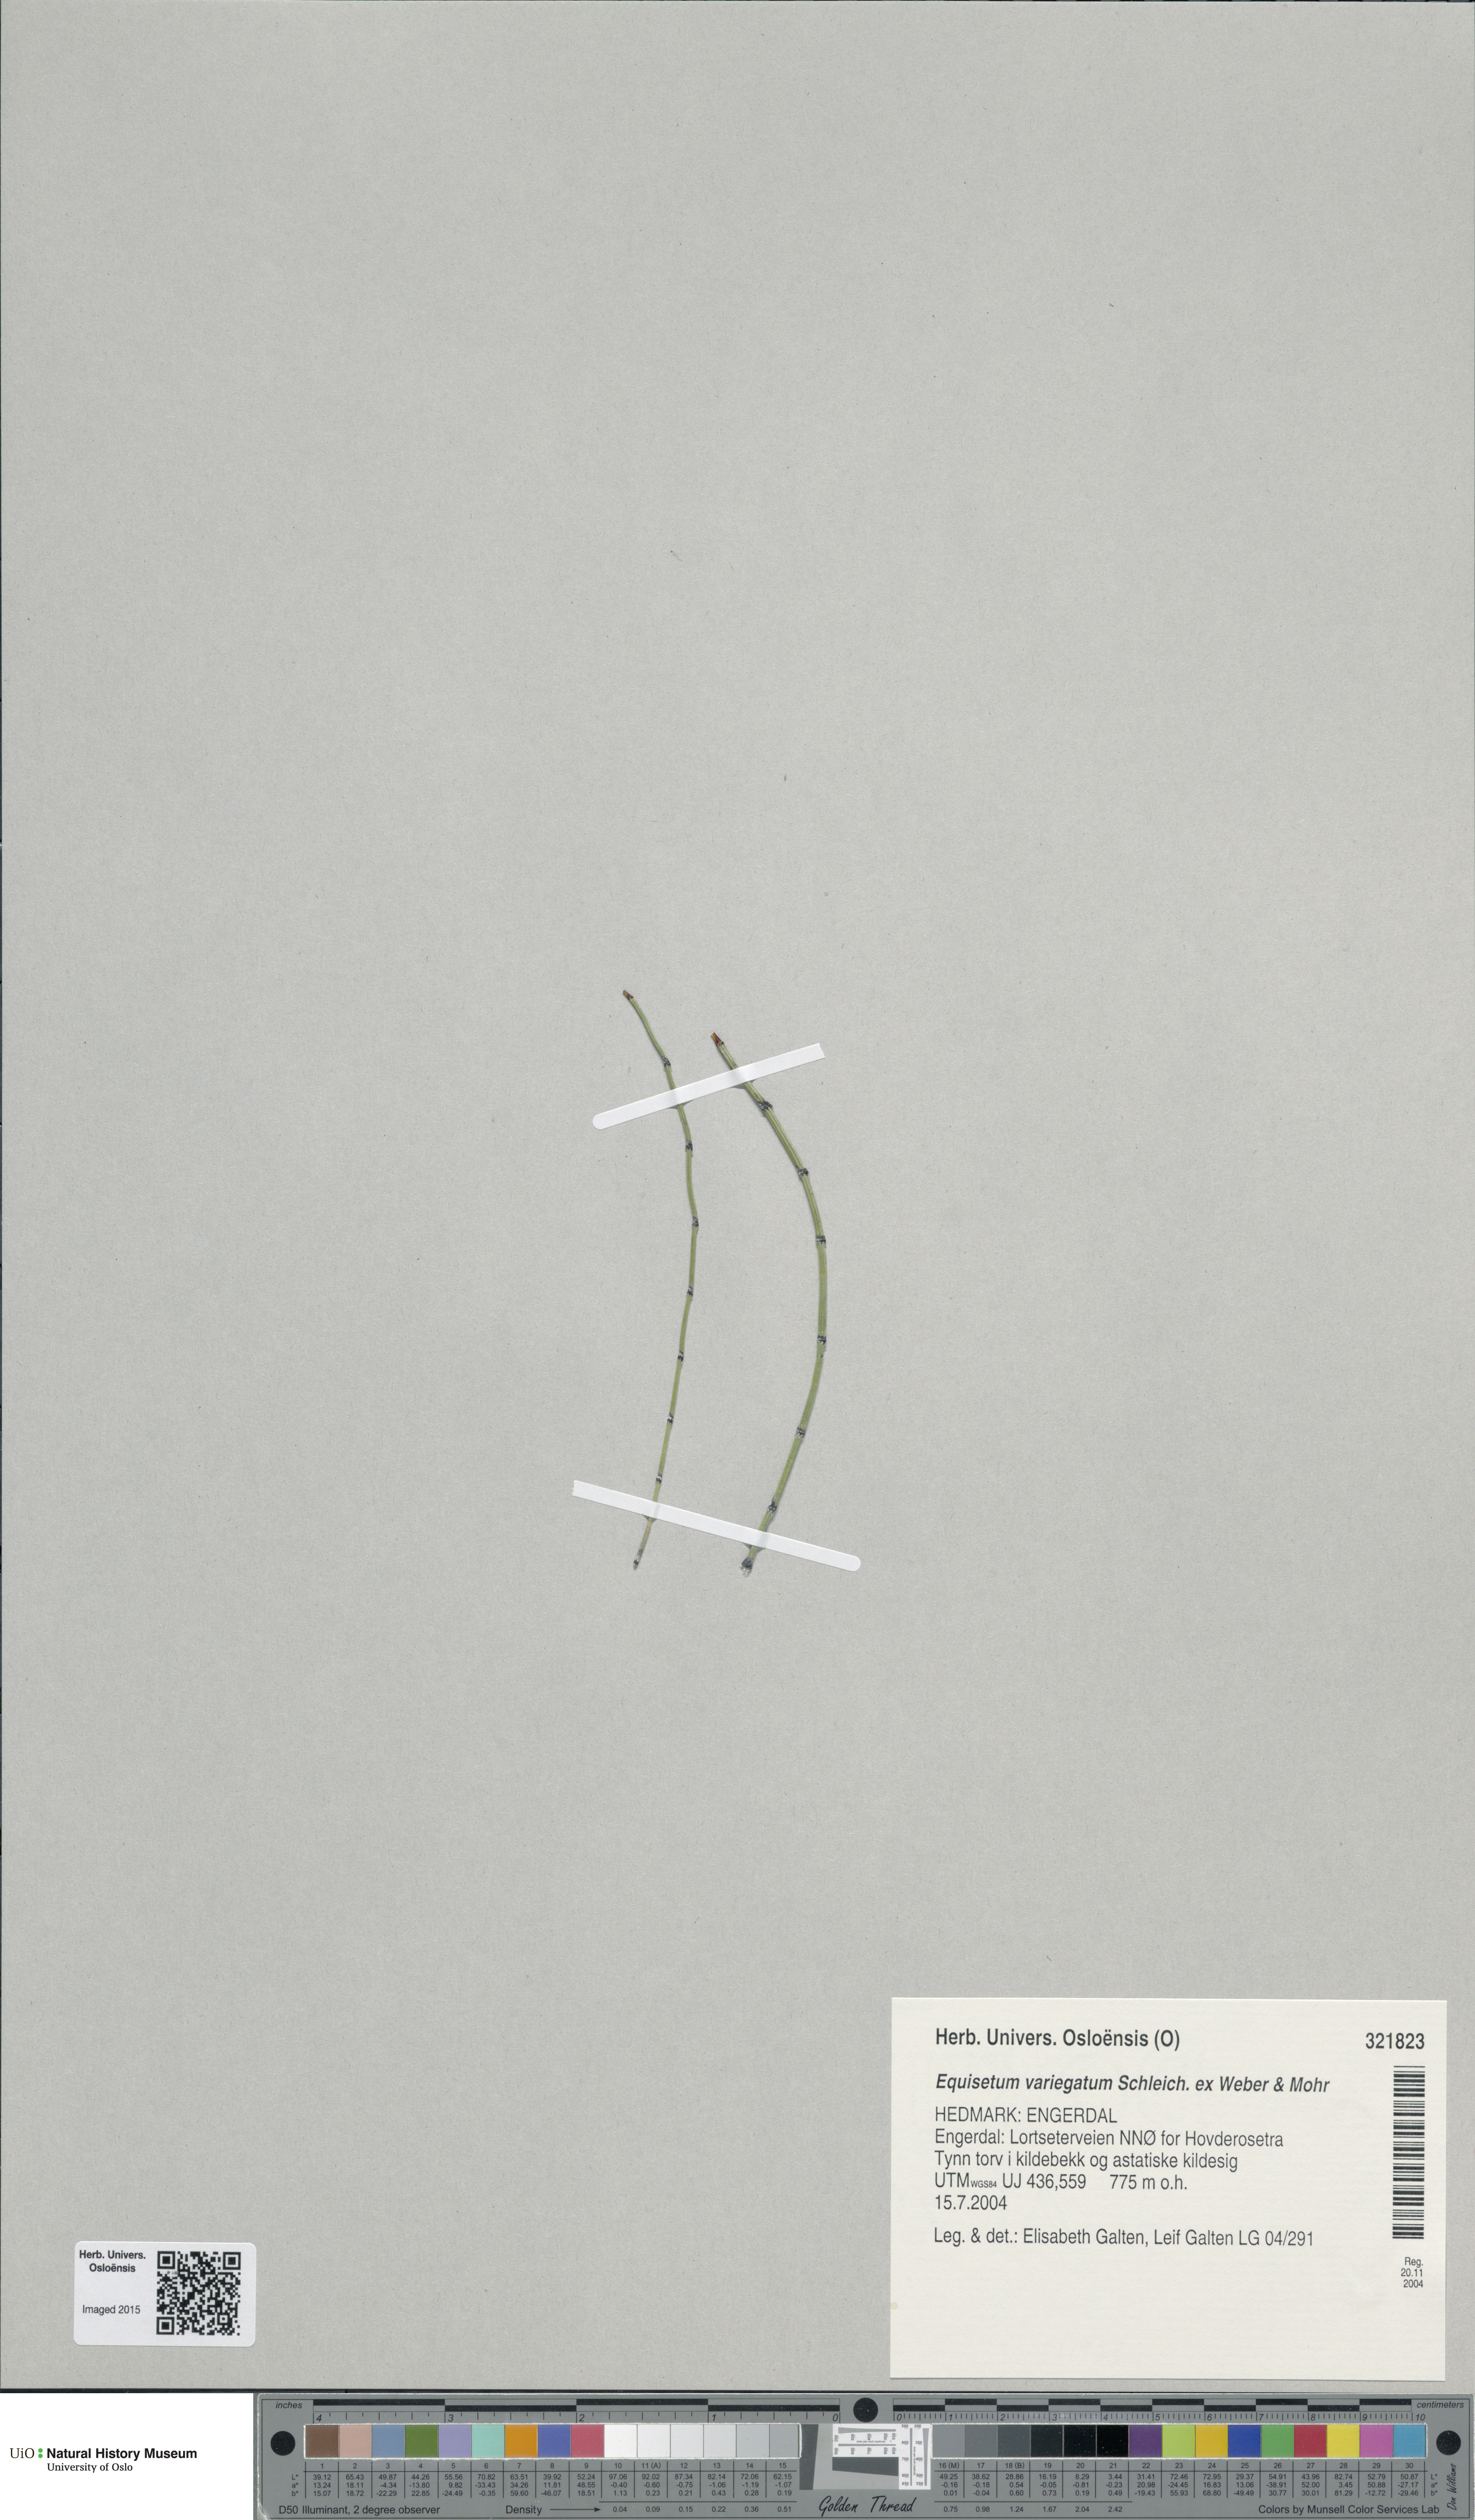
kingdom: Plantae
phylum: Tracheophyta
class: Polypodiopsida
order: Equisetales
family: Equisetaceae
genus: Equisetum
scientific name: Equisetum variegatum
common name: Variegated horsetail
